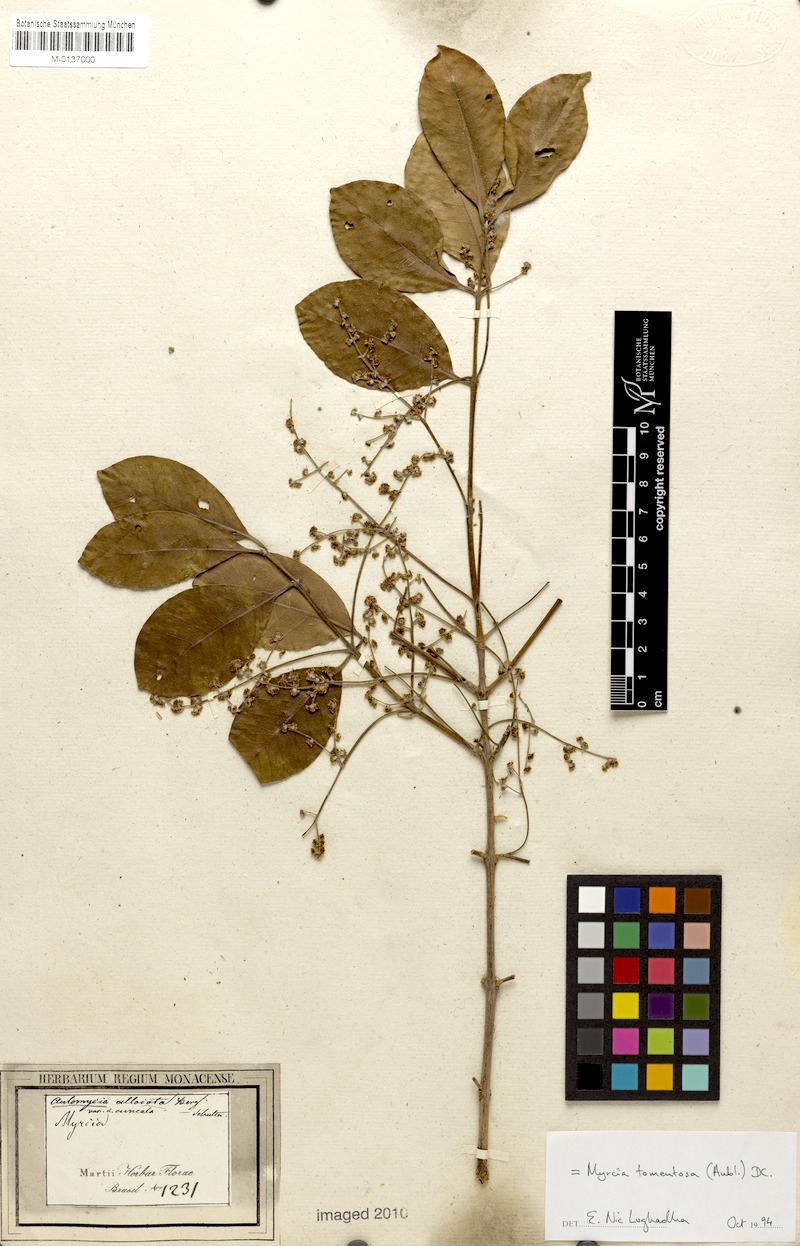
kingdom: Plantae
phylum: Tracheophyta
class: Magnoliopsida
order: Myrtales
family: Myrtaceae
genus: Myrcia
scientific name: Myrcia tomentosa
